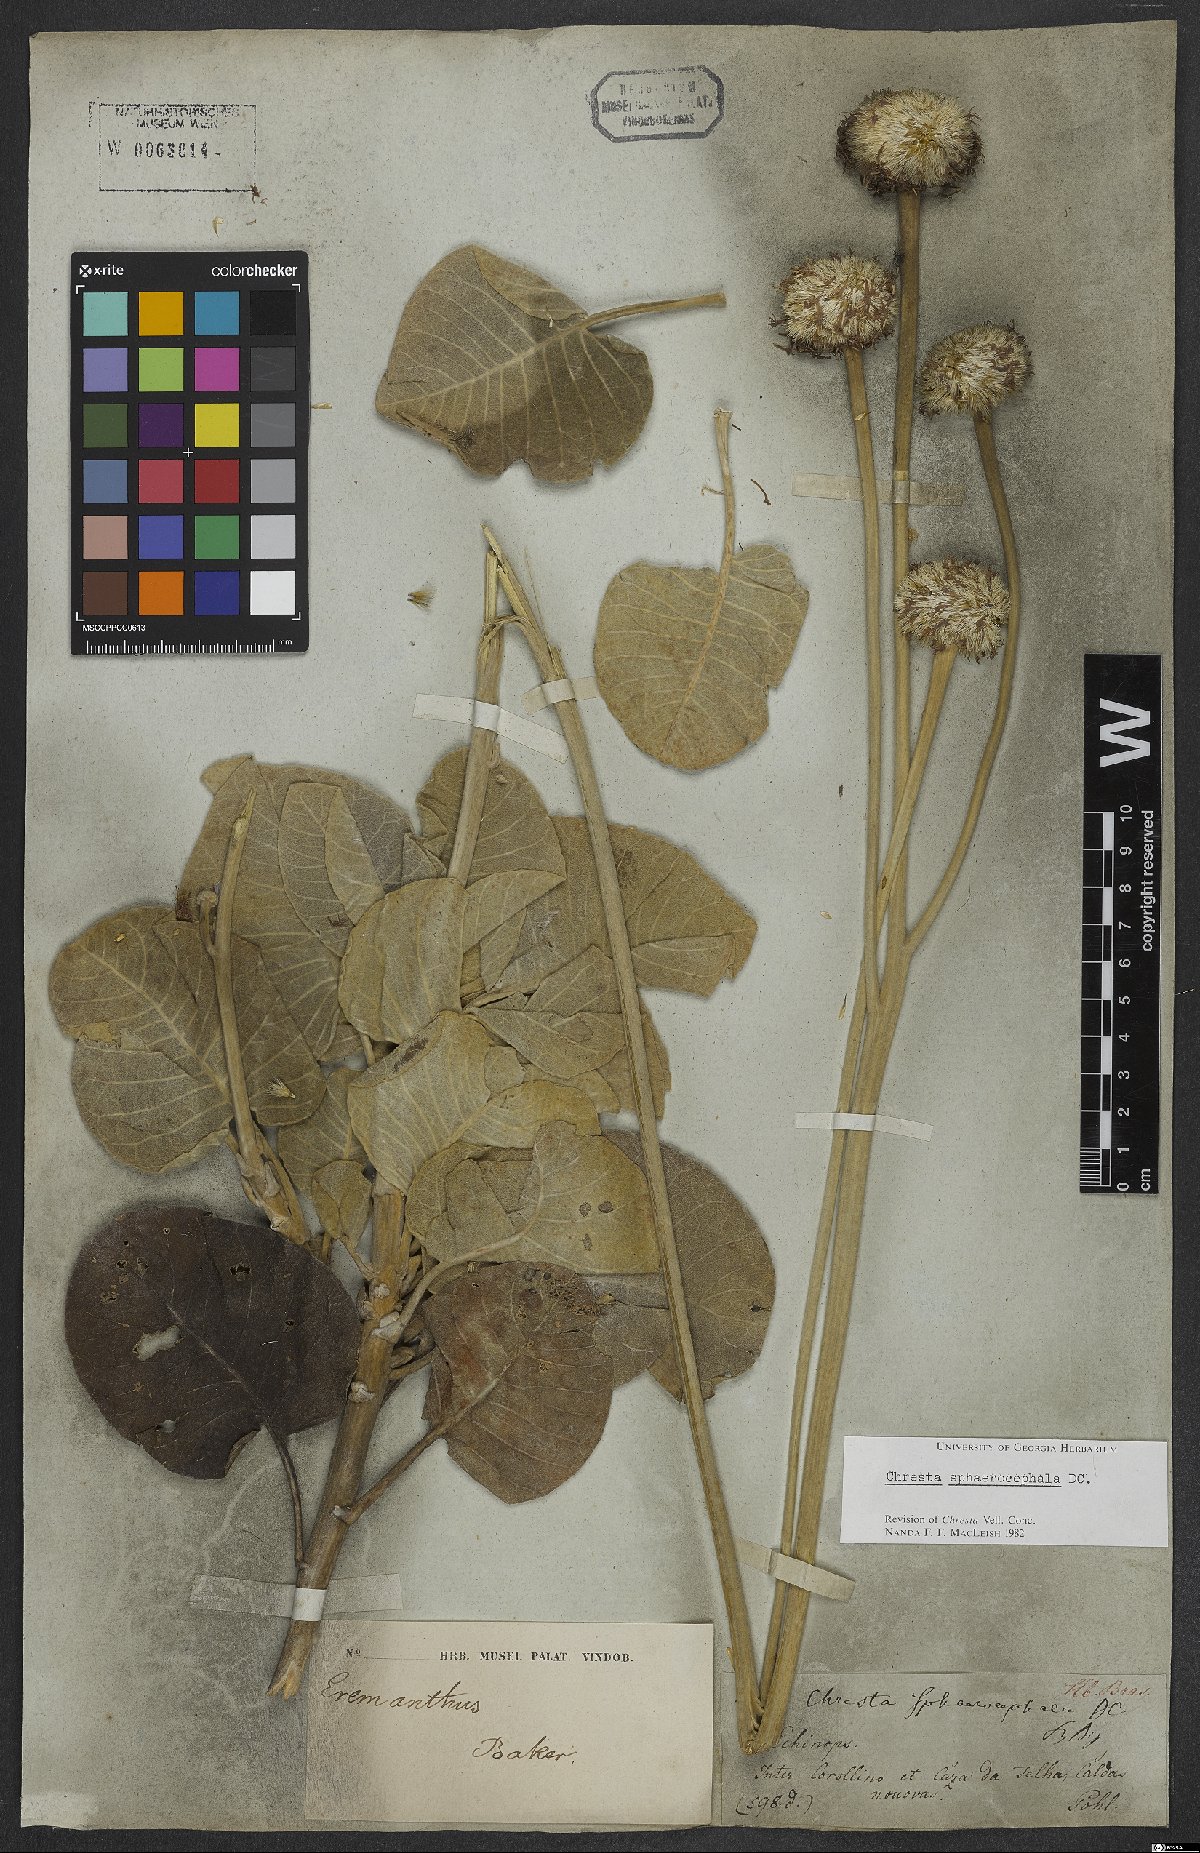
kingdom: Plantae
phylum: Tracheophyta
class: Magnoliopsida
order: Asterales
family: Asteraceae
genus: Chresta
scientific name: Chresta sphaerocephala
